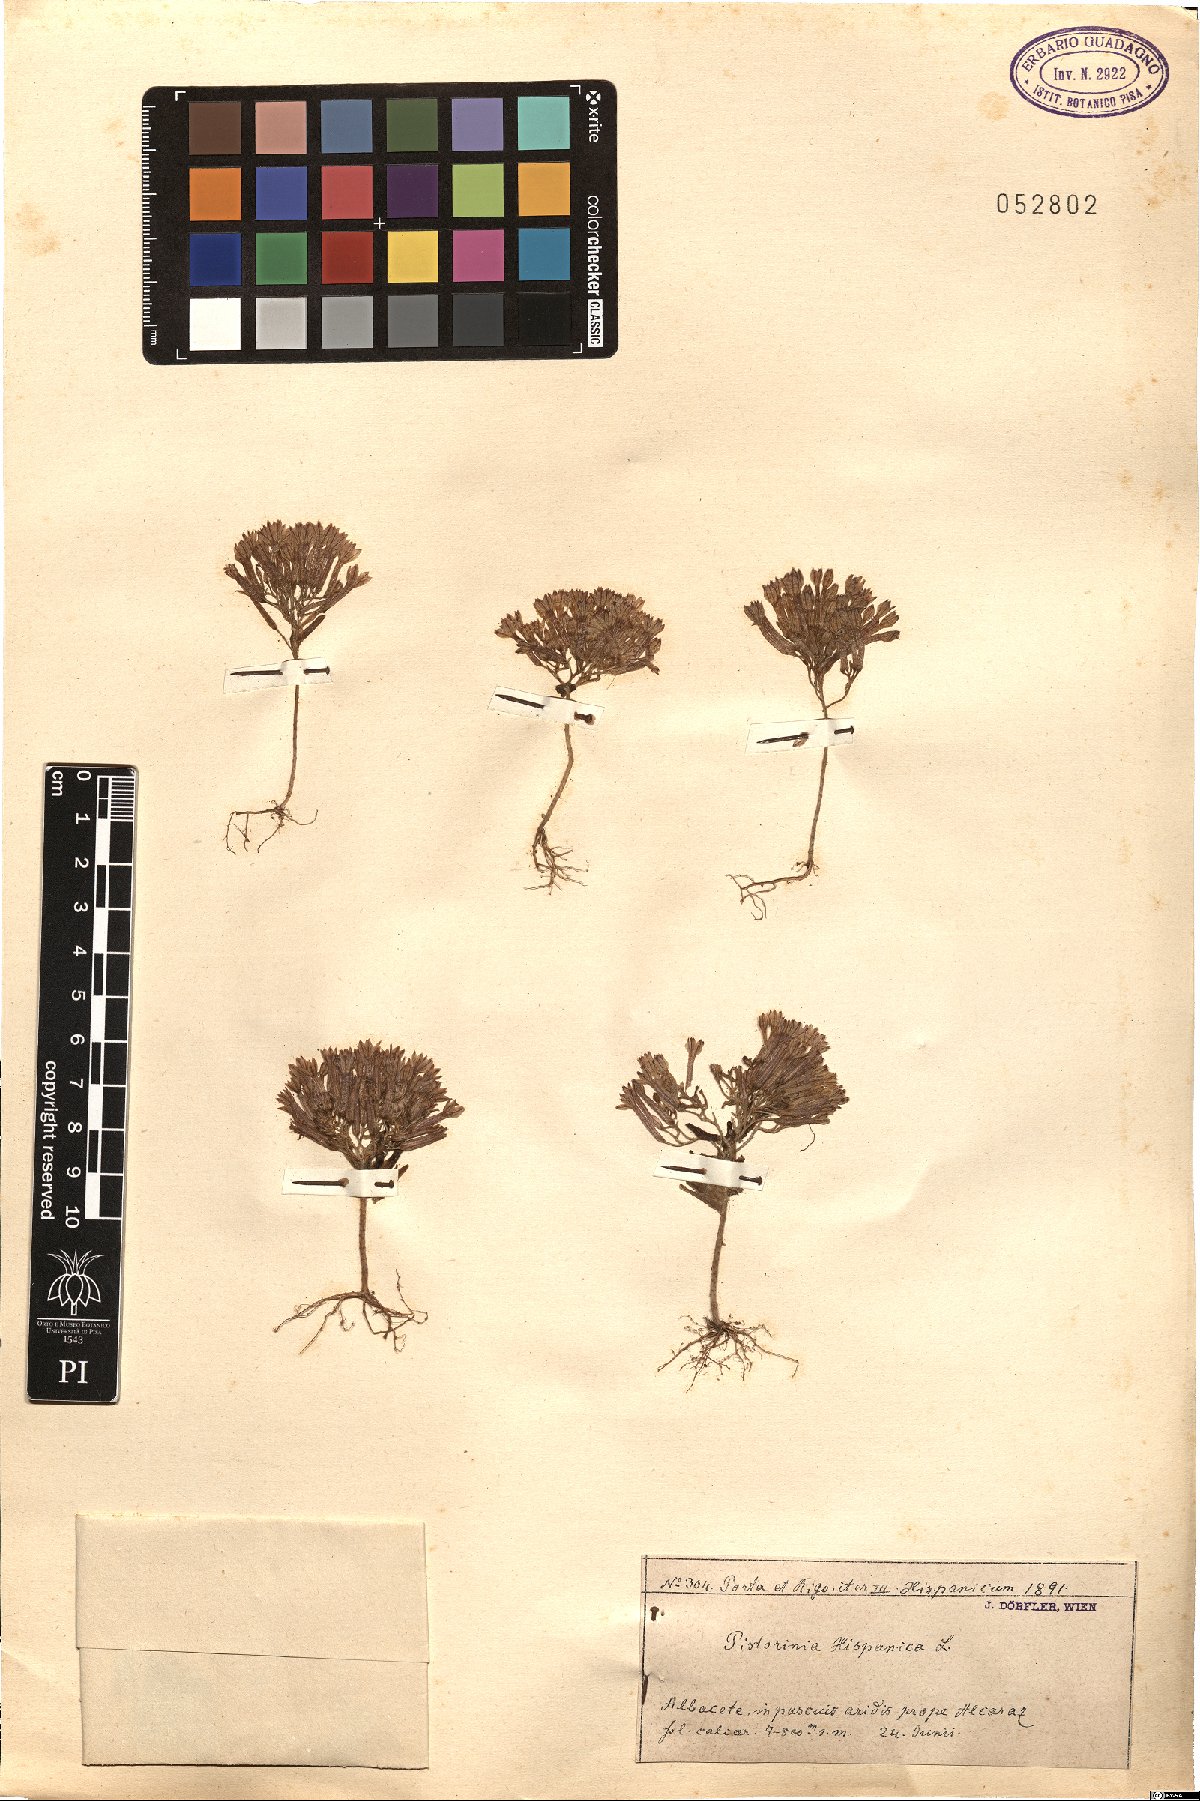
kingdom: Plantae
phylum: Tracheophyta
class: Magnoliopsida
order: Saxifragales
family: Crassulaceae
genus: Pistorinia
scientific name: Pistorinia hispanica
